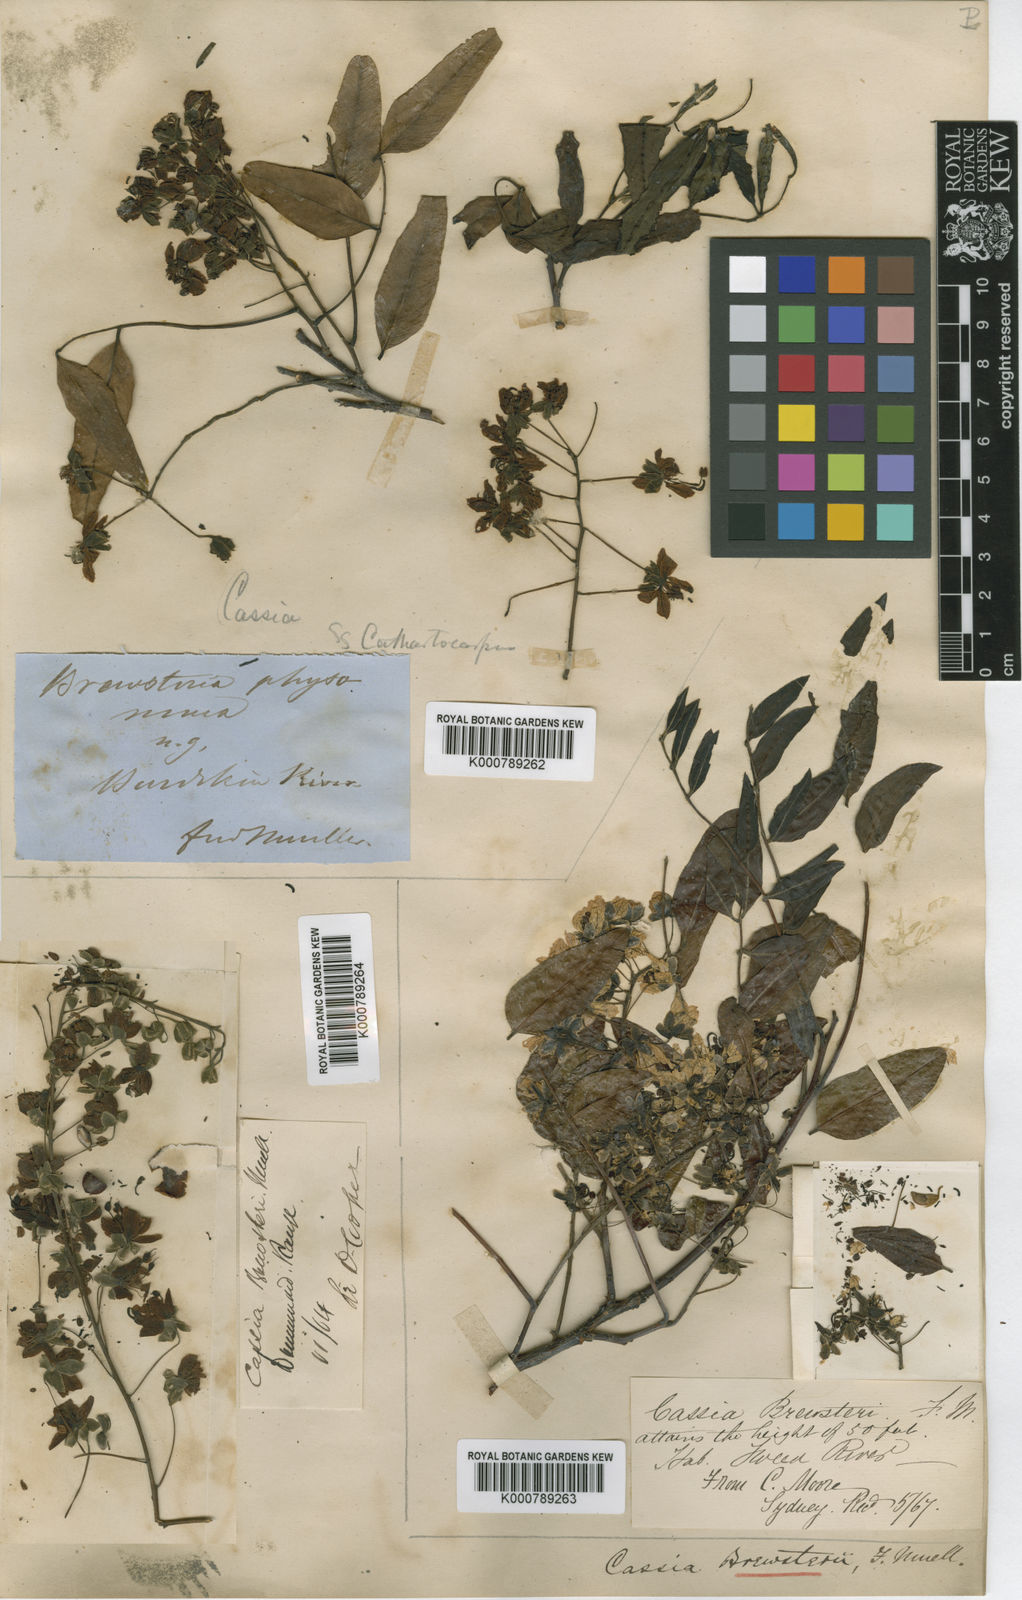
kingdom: Plantae
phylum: Tracheophyta
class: Magnoliopsida
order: Fabales
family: Fabaceae
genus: Cassia
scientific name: Cassia
